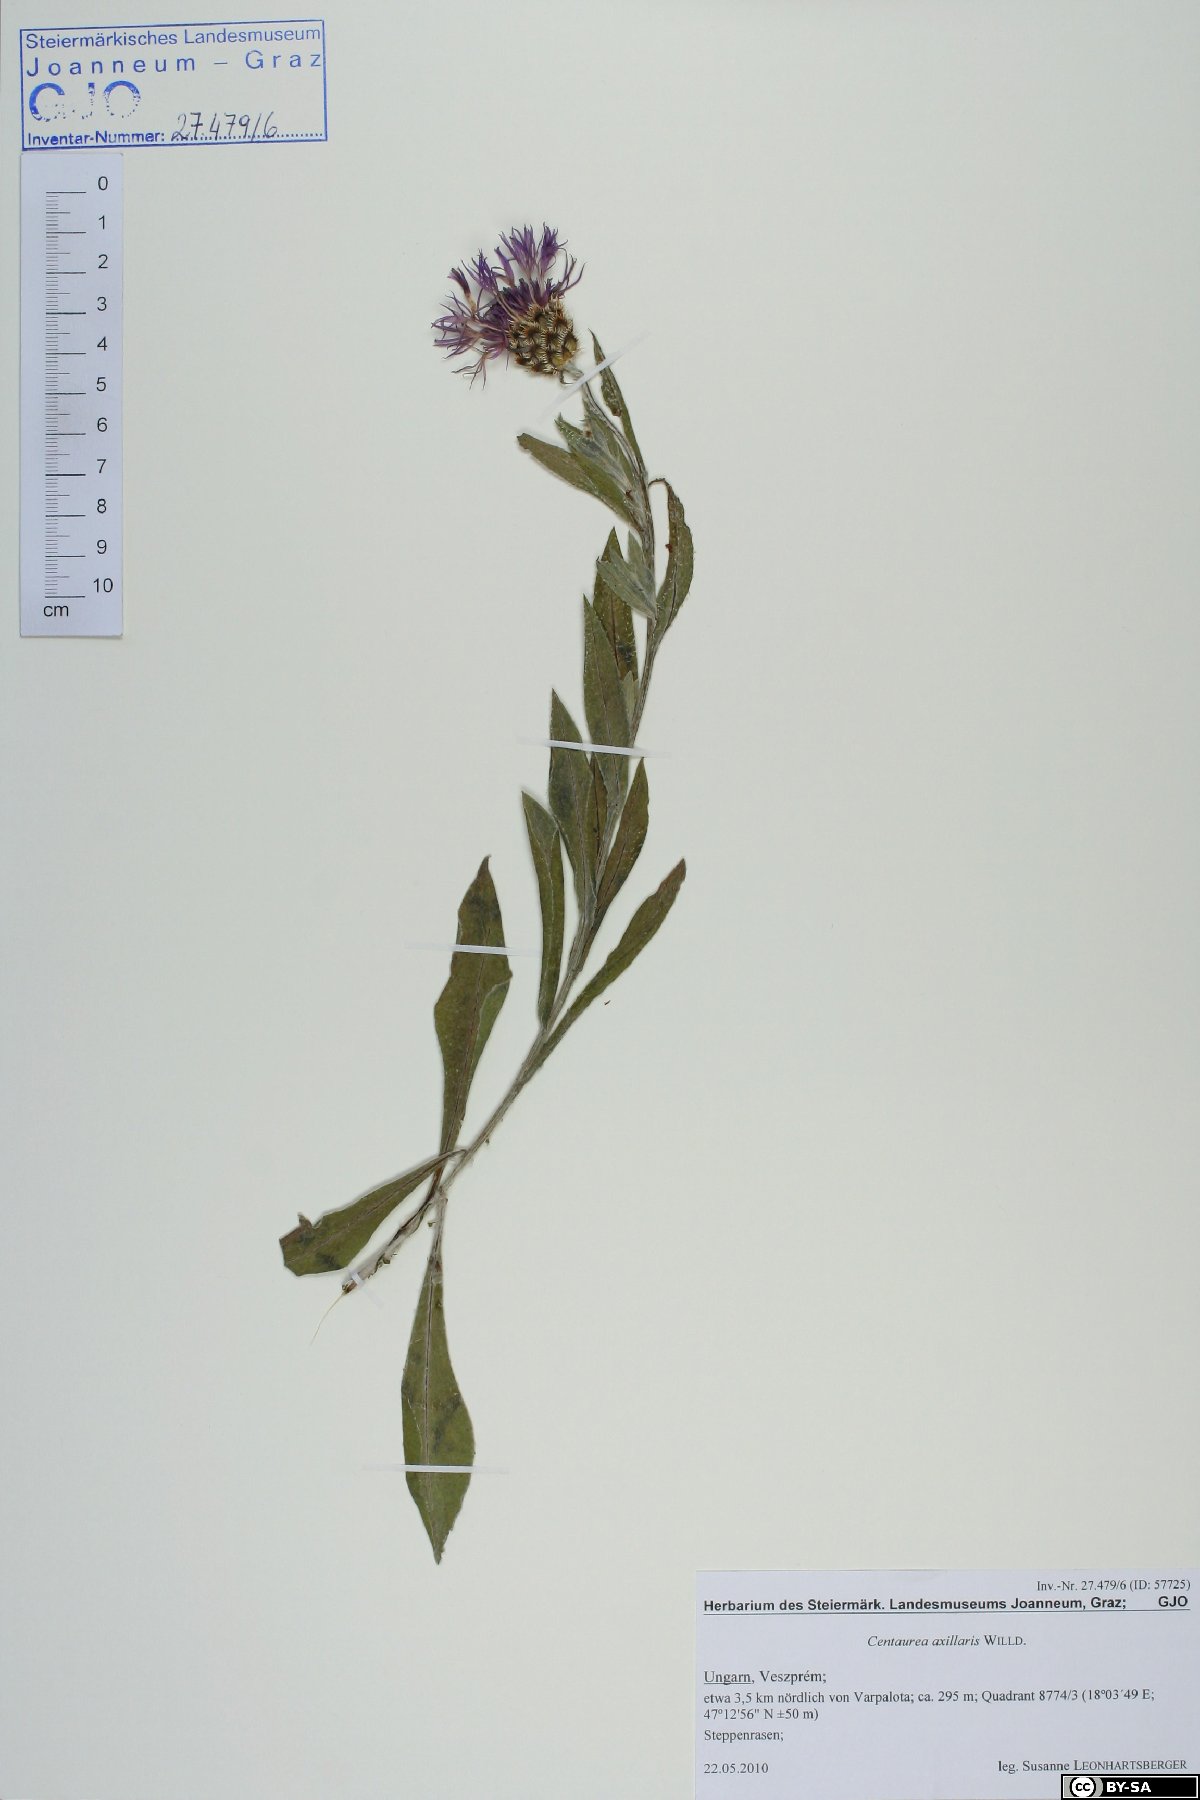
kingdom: Plantae
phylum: Tracheophyta
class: Magnoliopsida
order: Asterales
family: Asteraceae
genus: Centaurea
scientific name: Centaurea triumfettii
